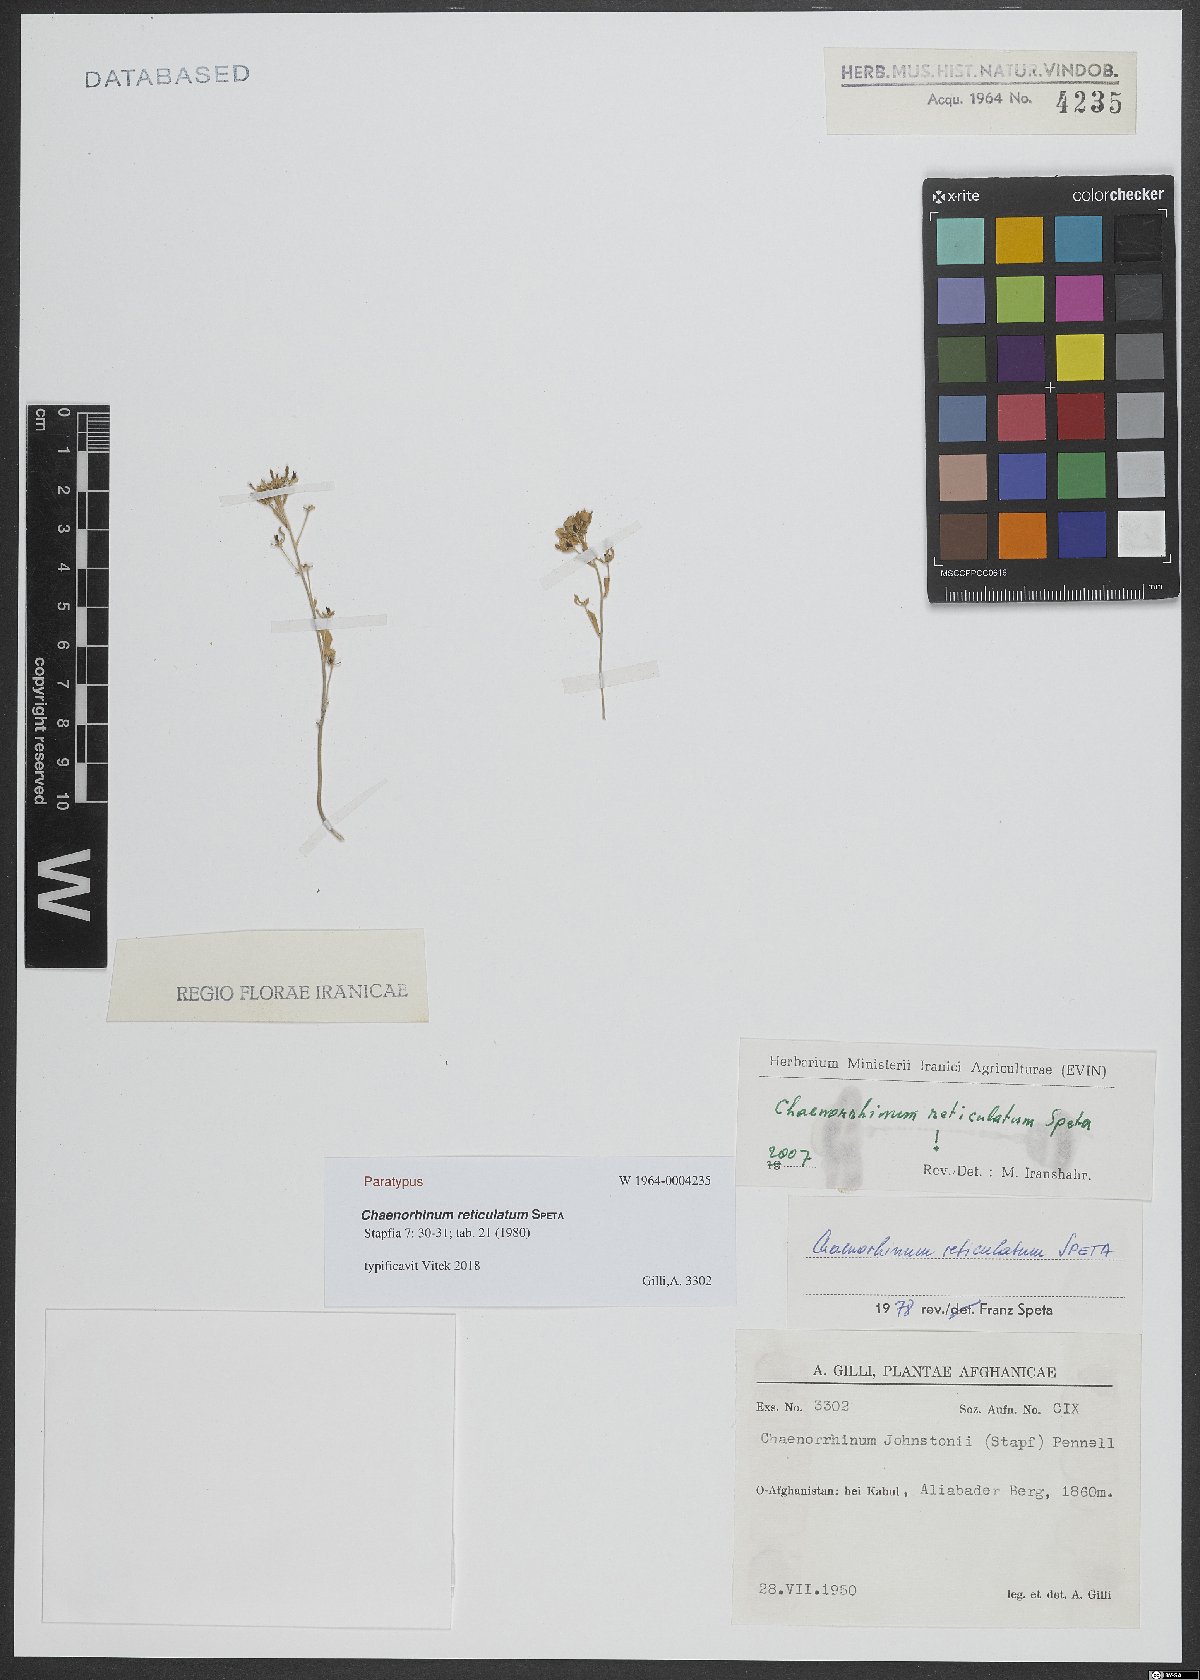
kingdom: Plantae
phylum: Tracheophyta
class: Magnoliopsida
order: Lamiales
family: Plantaginaceae
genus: Chaenorhinum
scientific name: Chaenorhinum reticulatum
